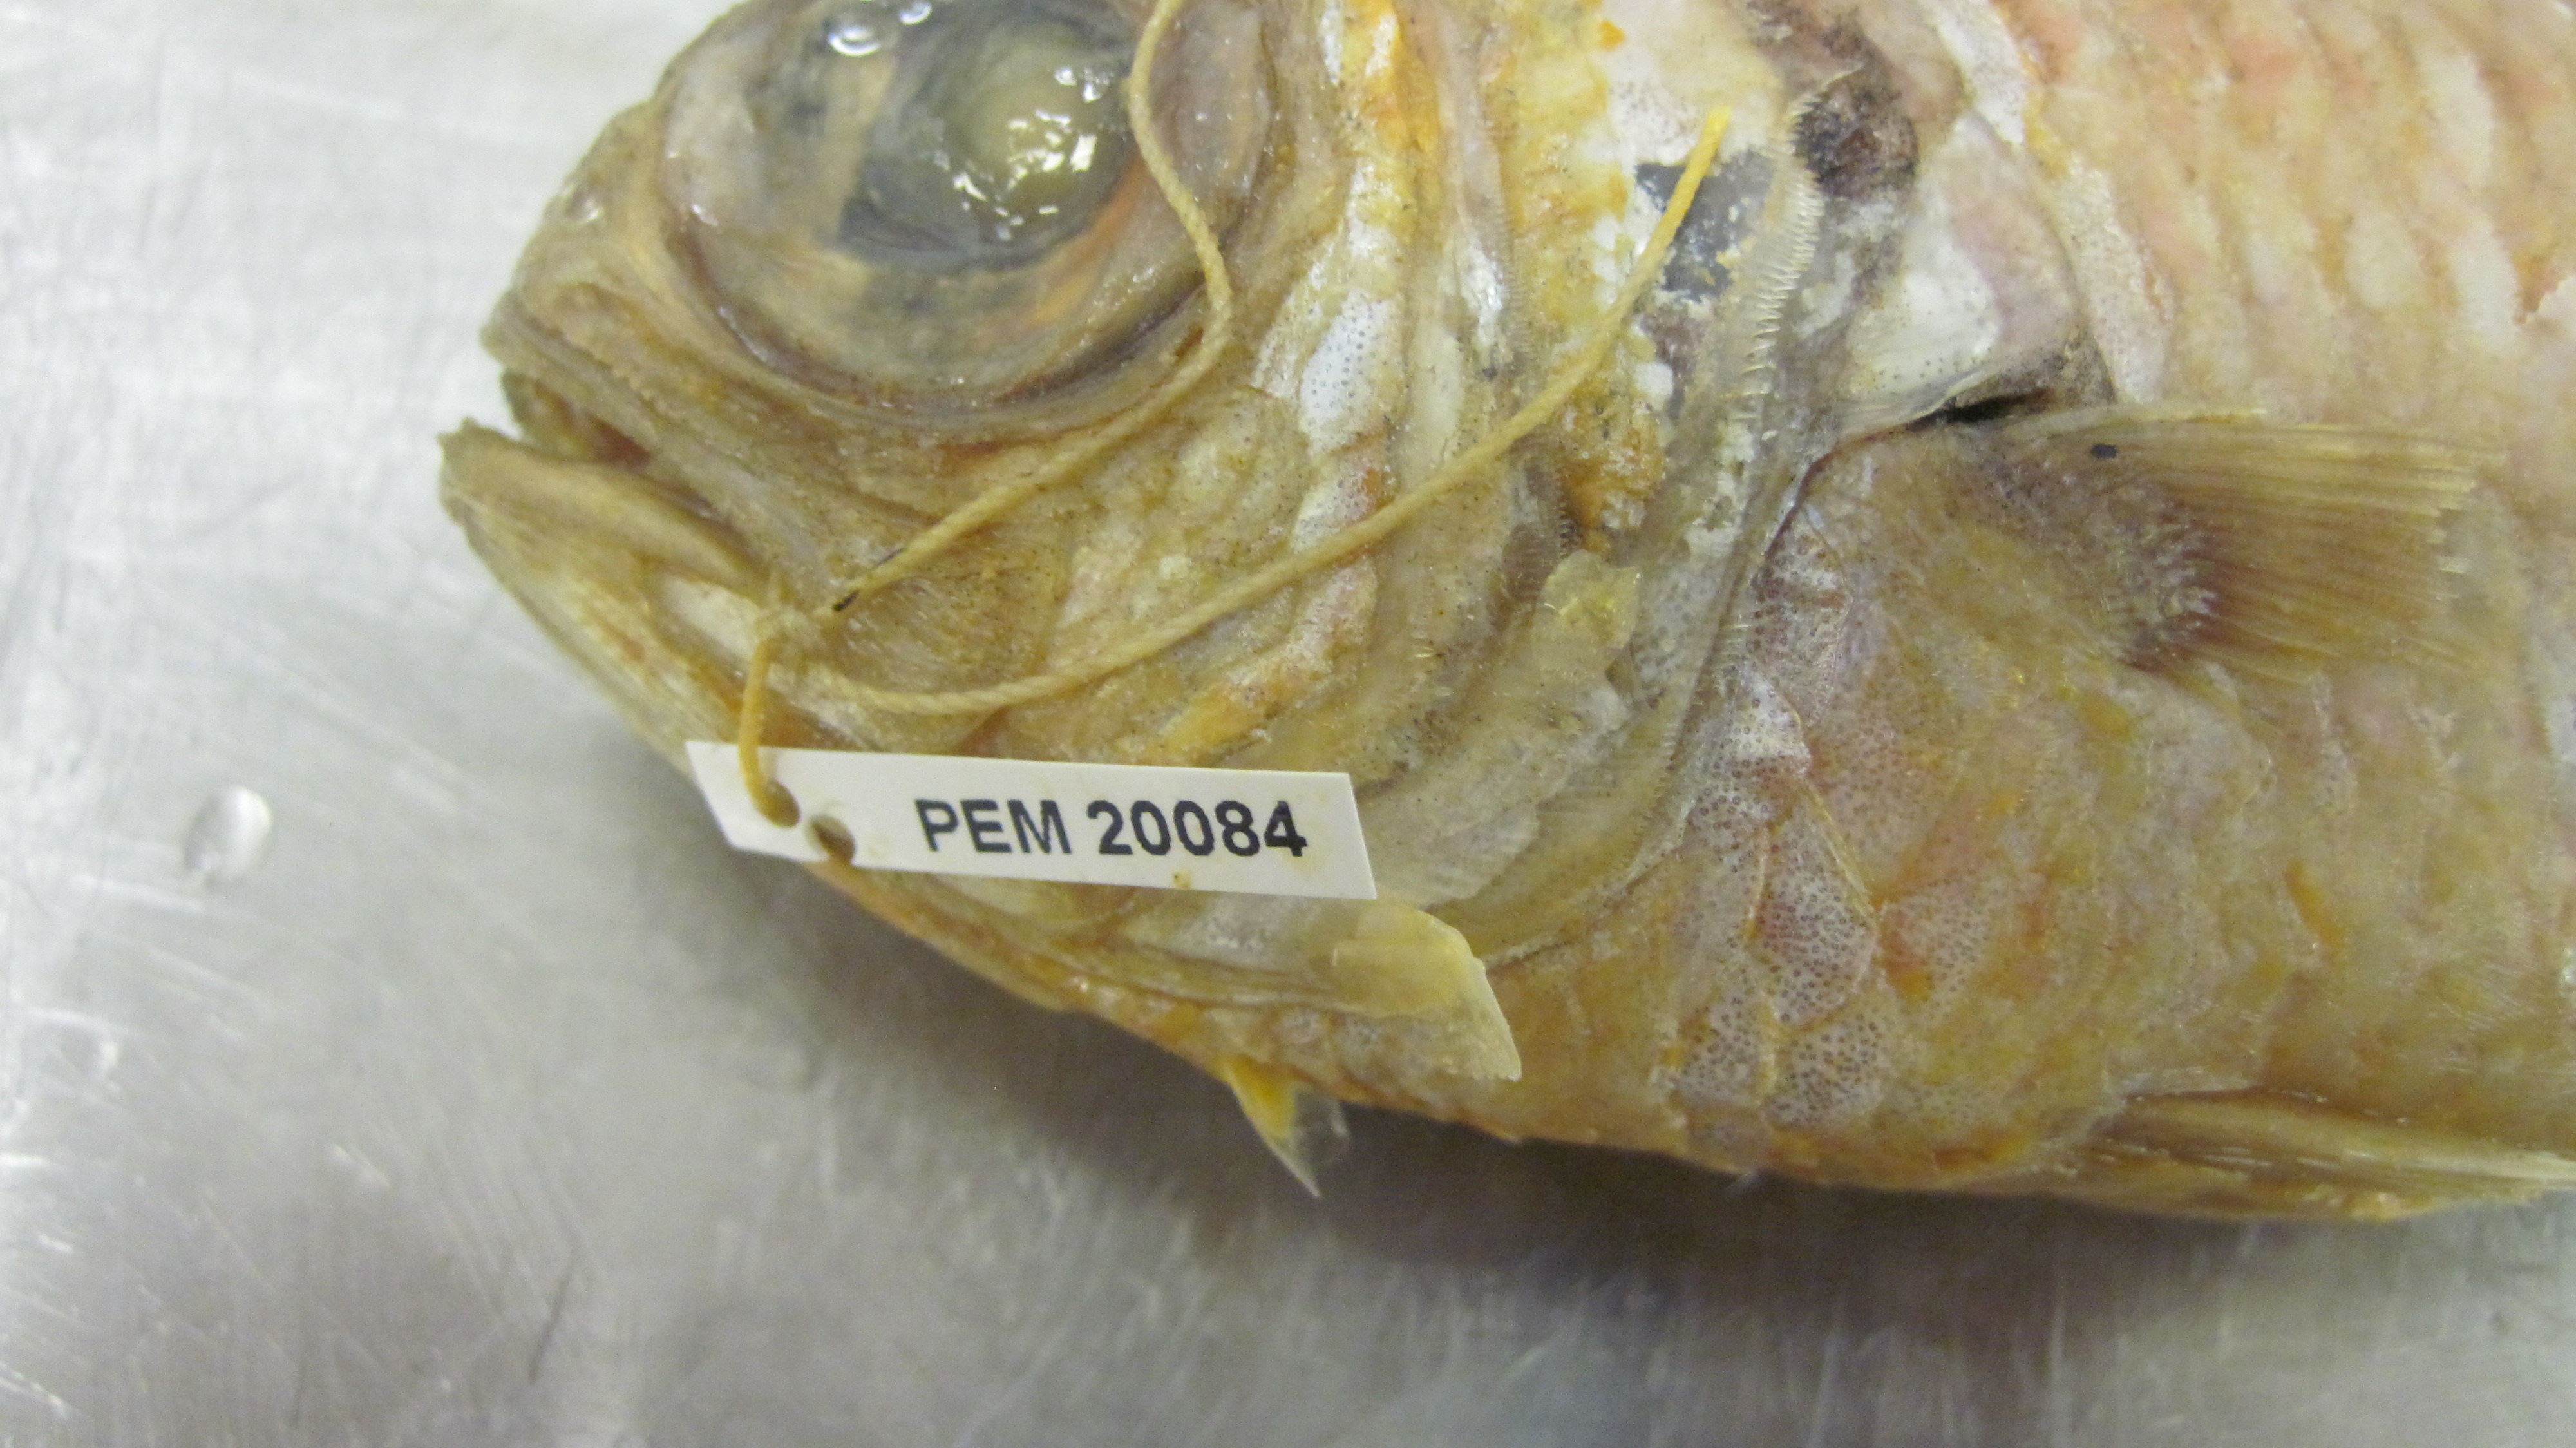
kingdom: Animalia
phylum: Chordata
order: Beryciformes
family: Holocentridae
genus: Myripristis
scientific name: Myripristis botche
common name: Blacktip soldierfish
